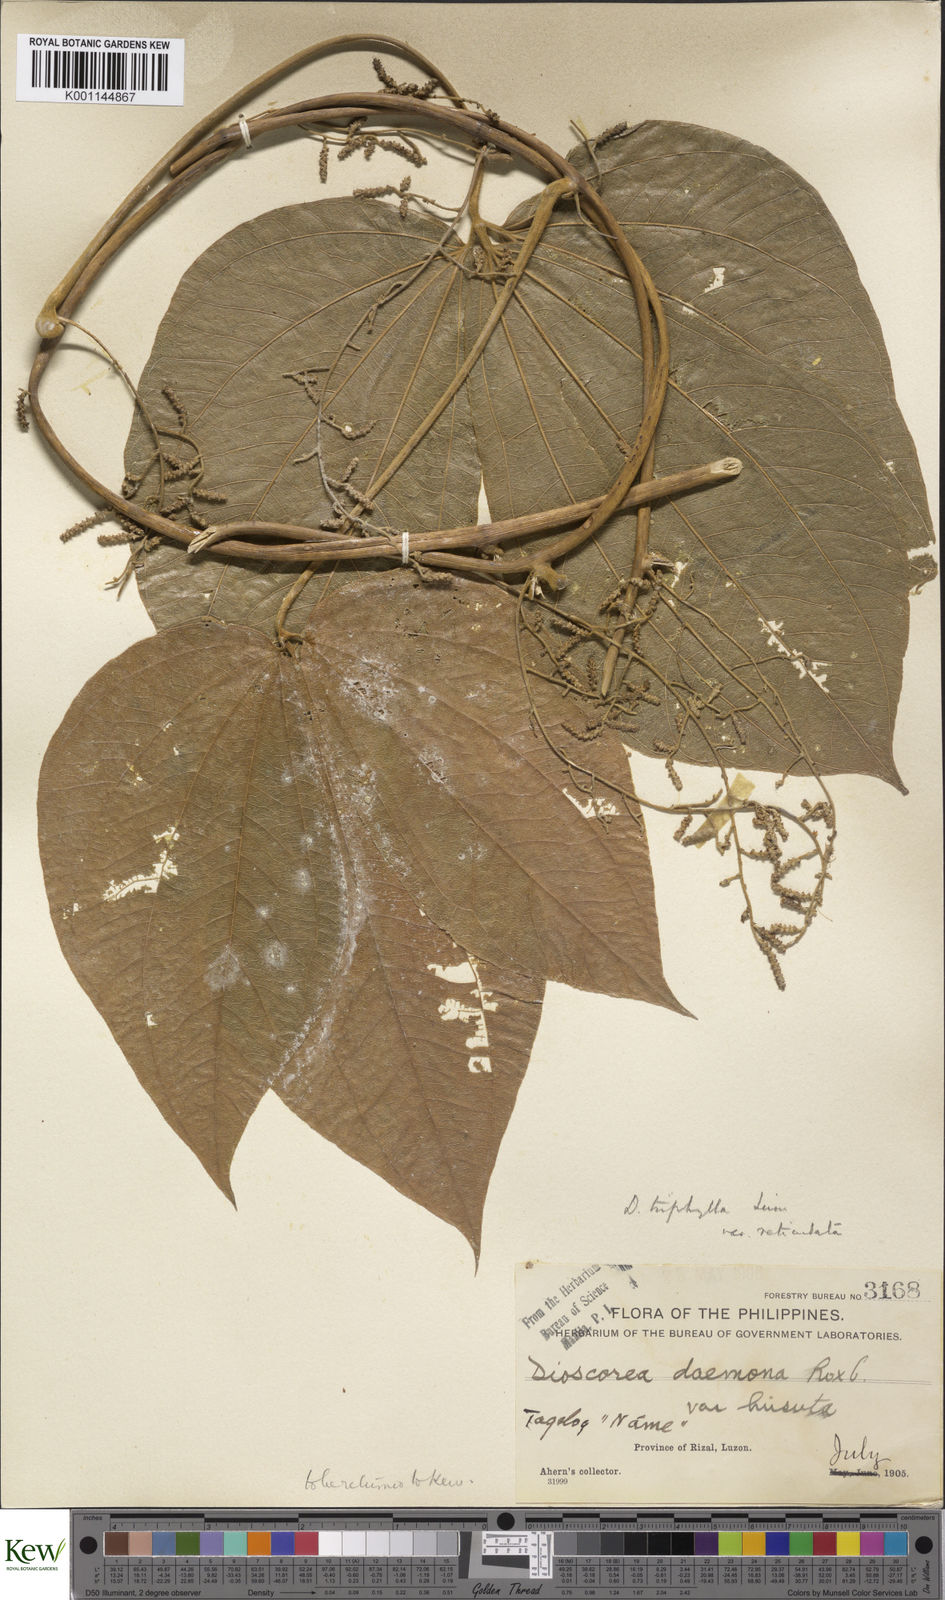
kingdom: Plantae
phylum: Tracheophyta
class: Liliopsida
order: Dioscoreales
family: Dioscoreaceae
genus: Dioscorea
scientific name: Dioscorea hispida
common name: Asiatic bitter yam
